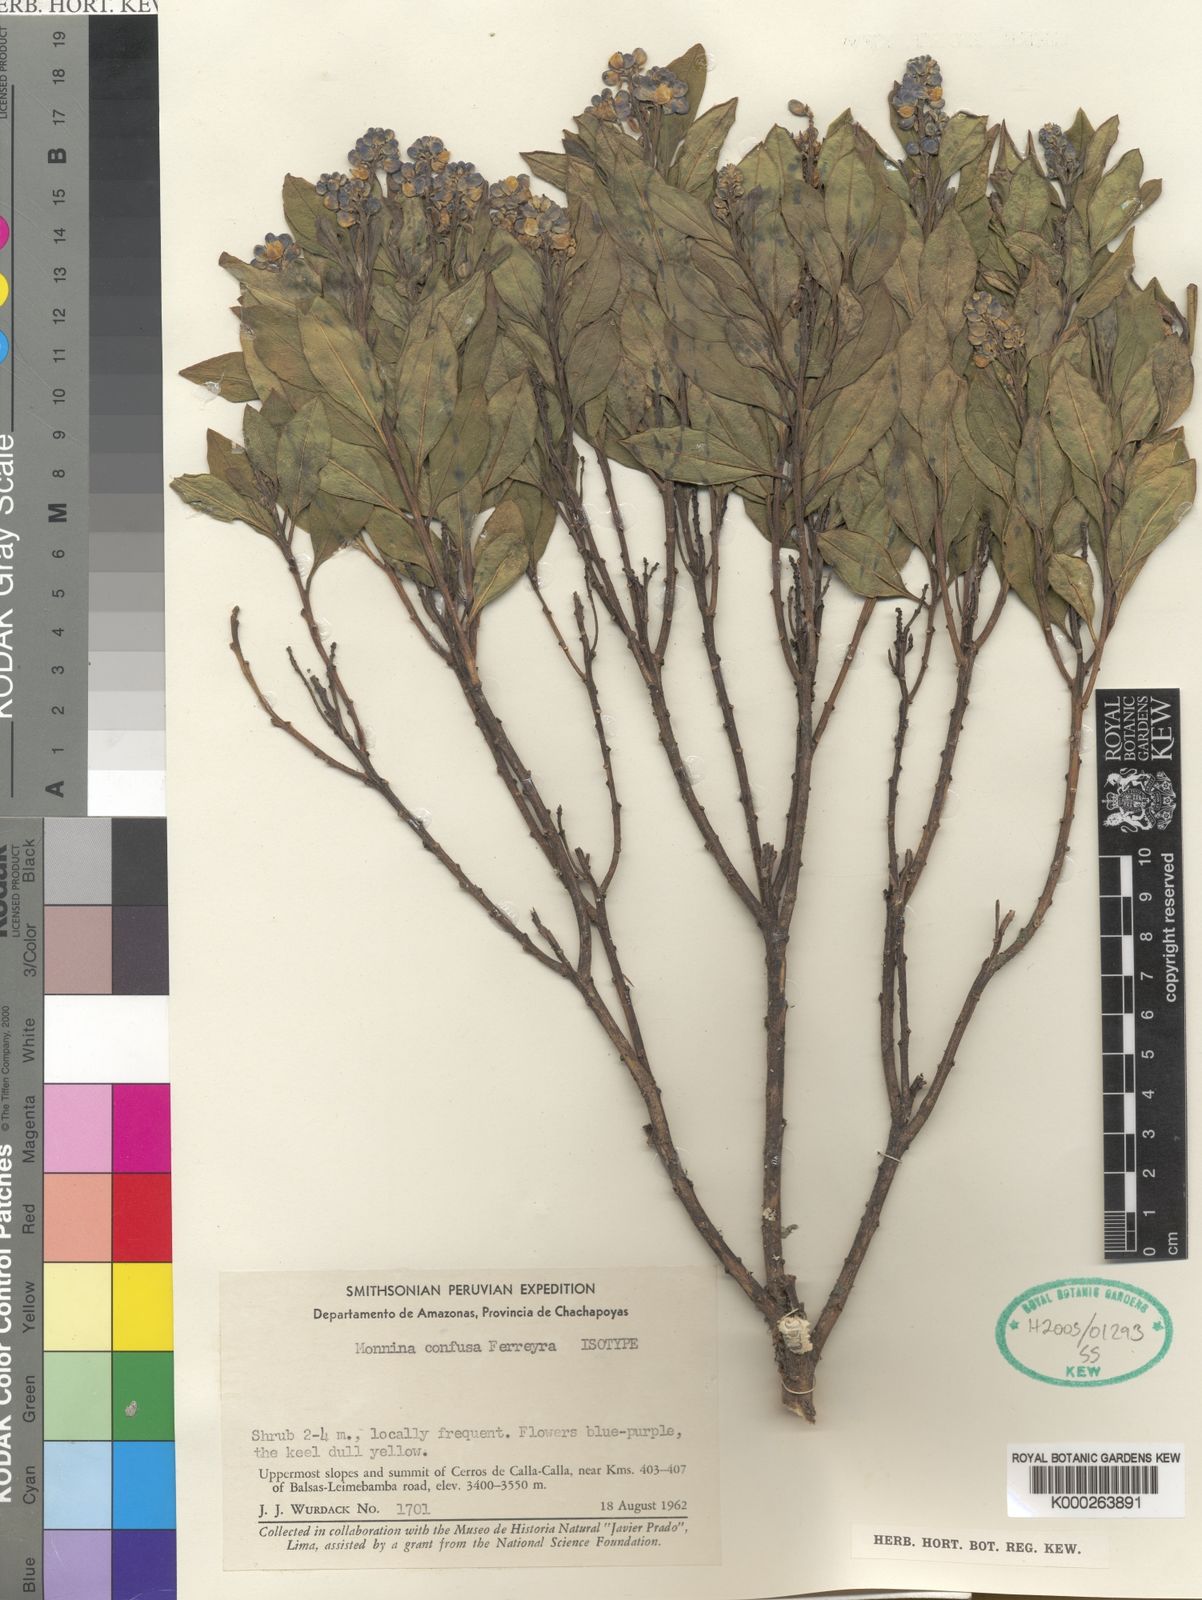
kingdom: Plantae
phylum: Tracheophyta
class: Magnoliopsida
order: Fabales
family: Polygalaceae
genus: Monnina
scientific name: Monnina confusa
